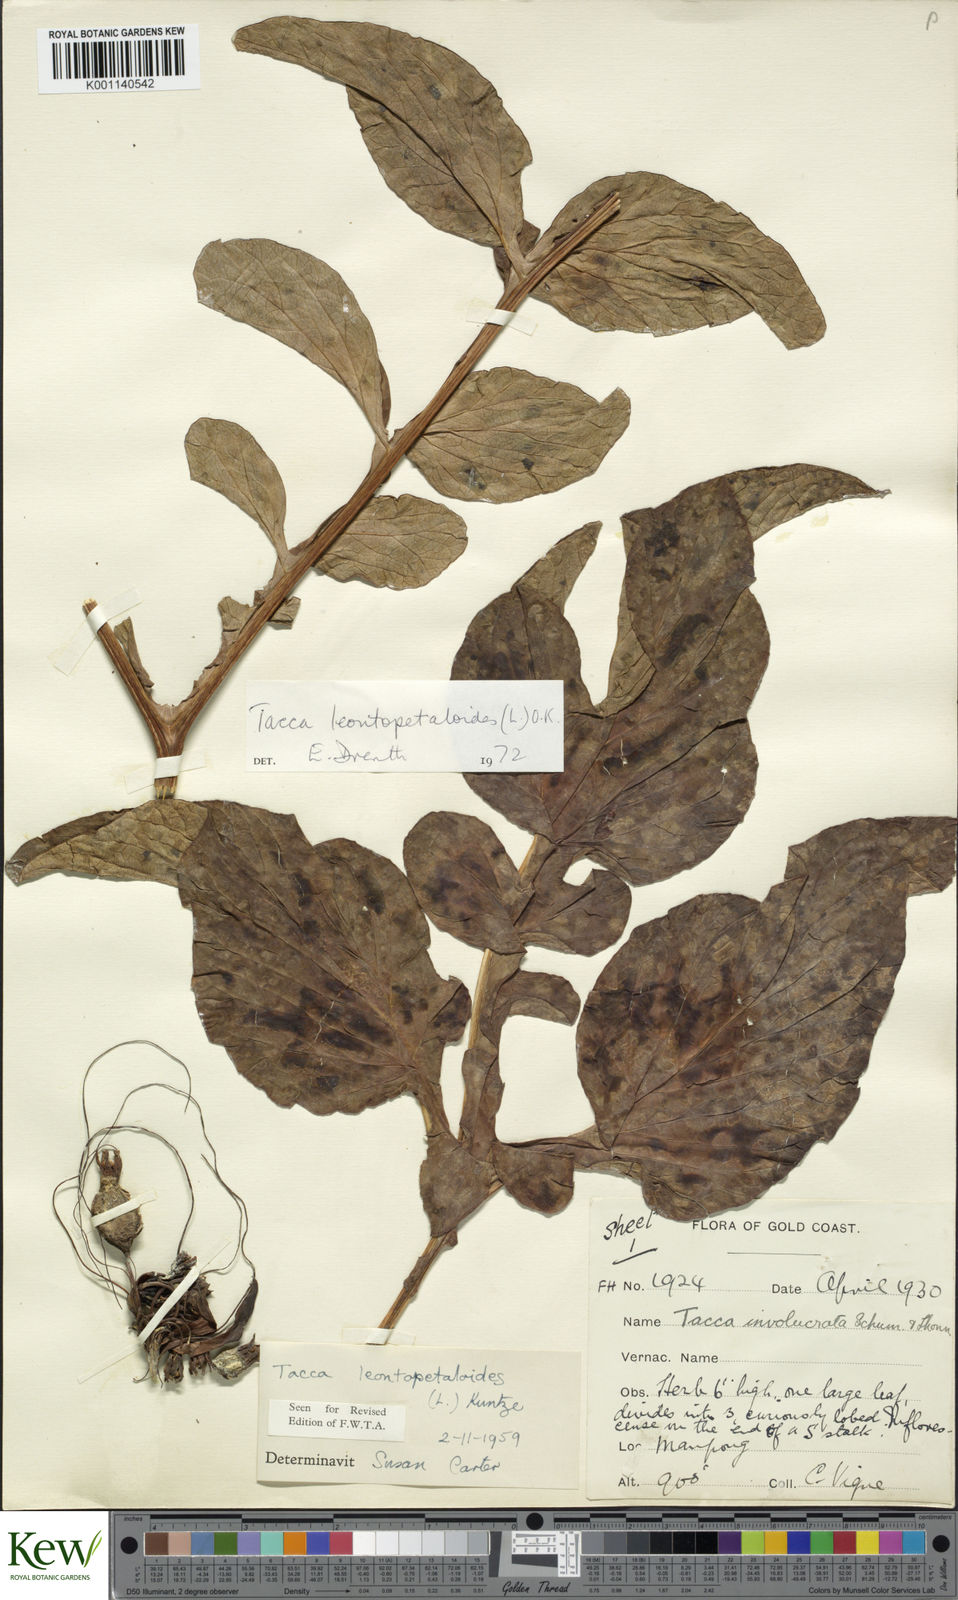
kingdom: Plantae
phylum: Tracheophyta
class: Liliopsida
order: Dioscoreales
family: Dioscoreaceae
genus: Tacca
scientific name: Tacca leontopetaloides
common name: Arrowroot
